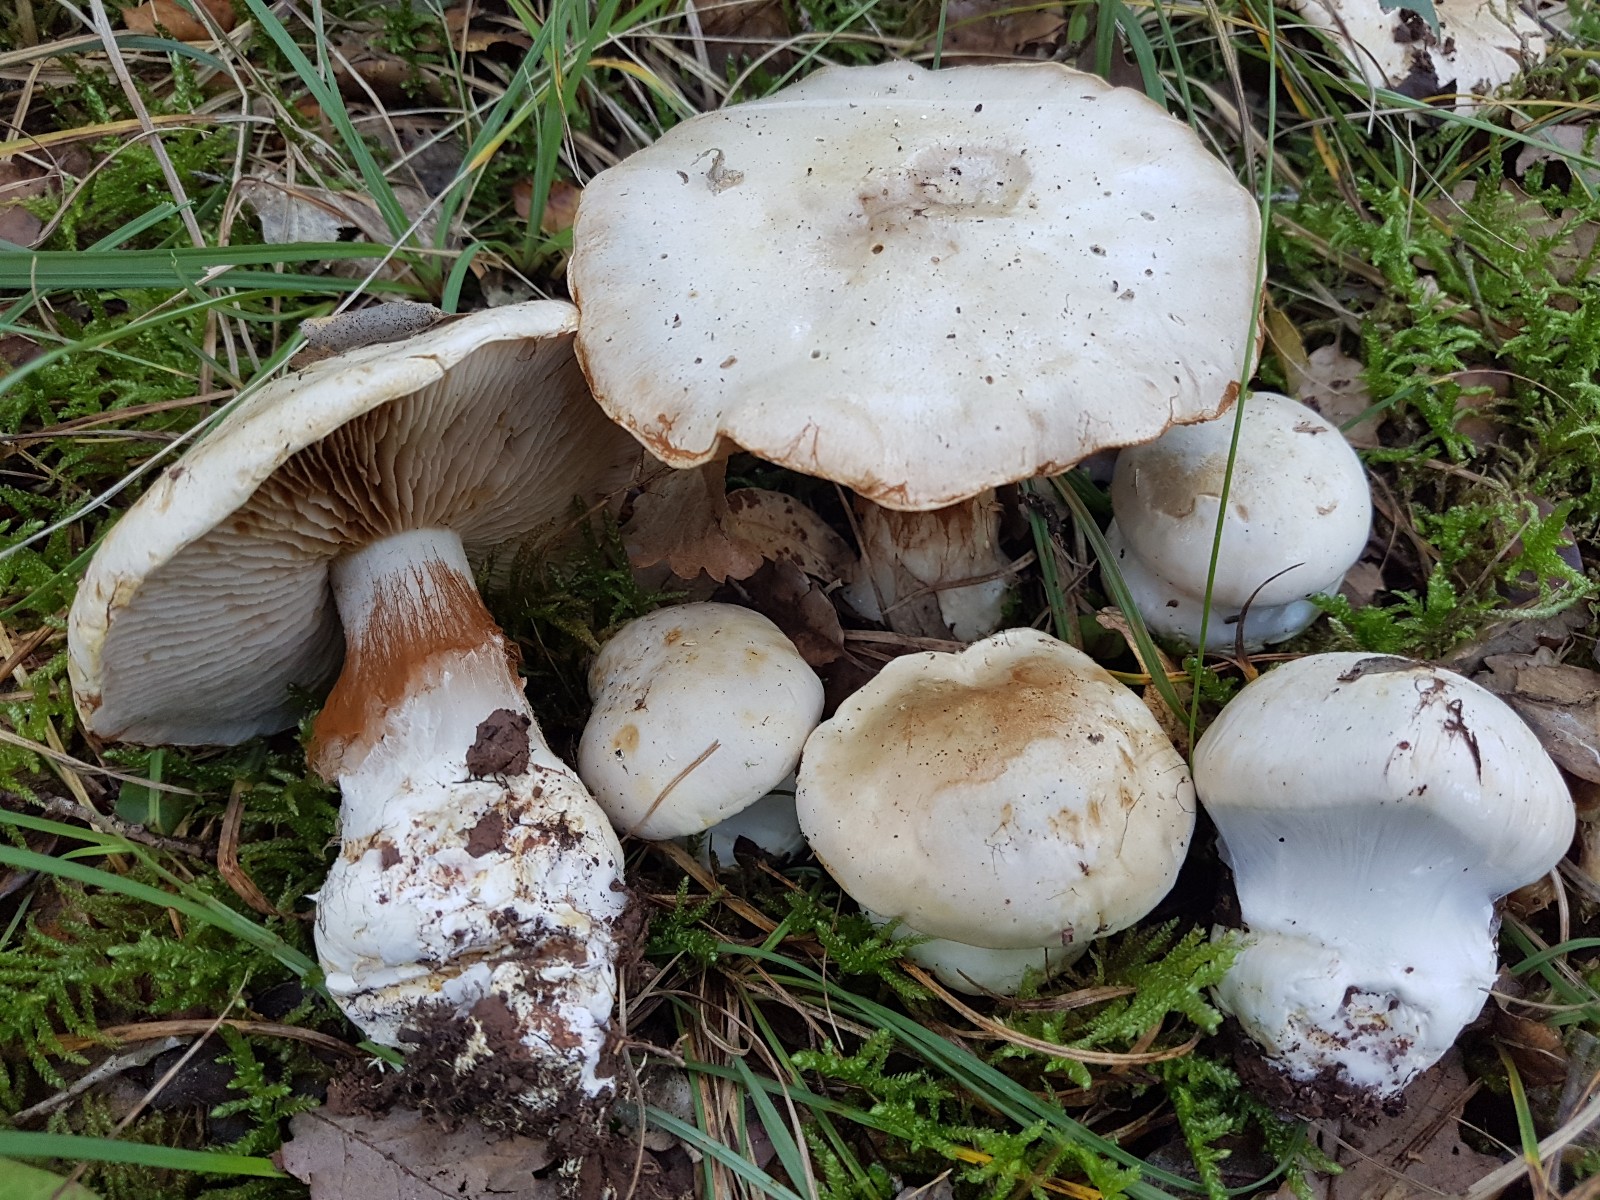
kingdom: Fungi
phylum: Basidiomycota
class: Agaricomycetes
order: Agaricales
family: Cortinariaceae
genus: Cortinarius
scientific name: Cortinarius aleuriosmus
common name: Mealy webcap
